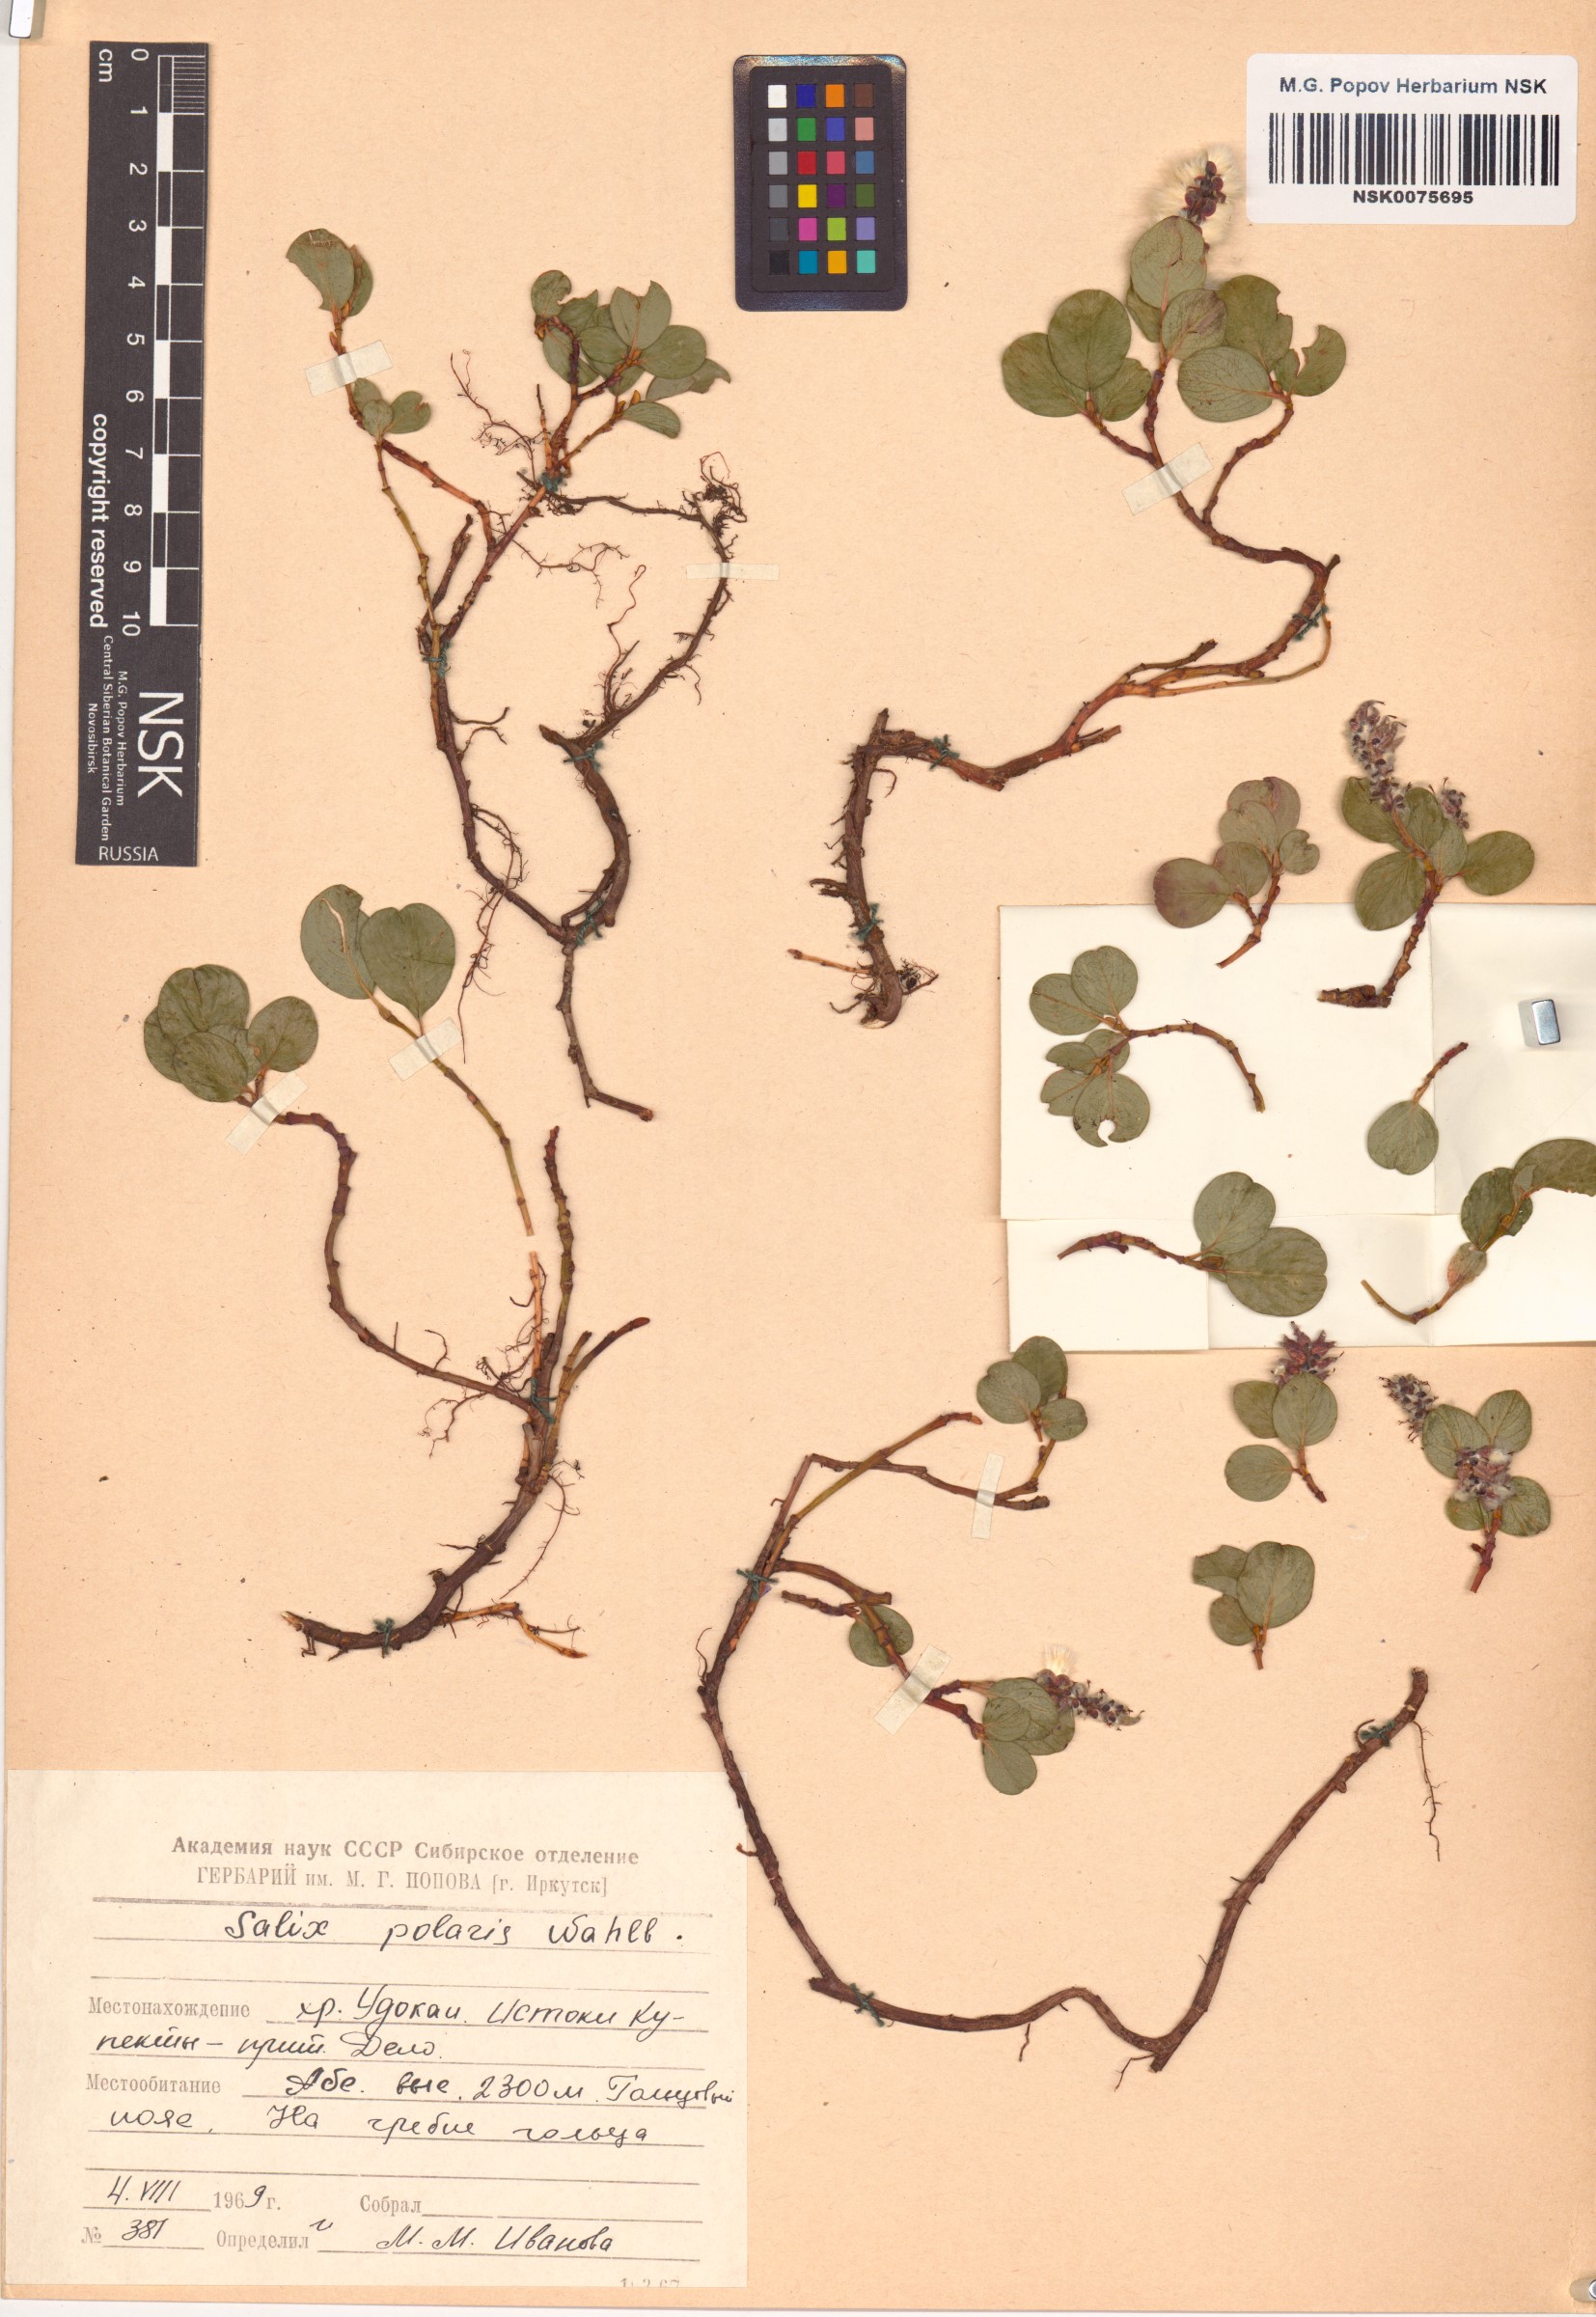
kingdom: Plantae
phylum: Tracheophyta
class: Magnoliopsida
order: Malpighiales
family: Salicaceae
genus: Salix
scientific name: Salix polaris
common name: Polar willow
